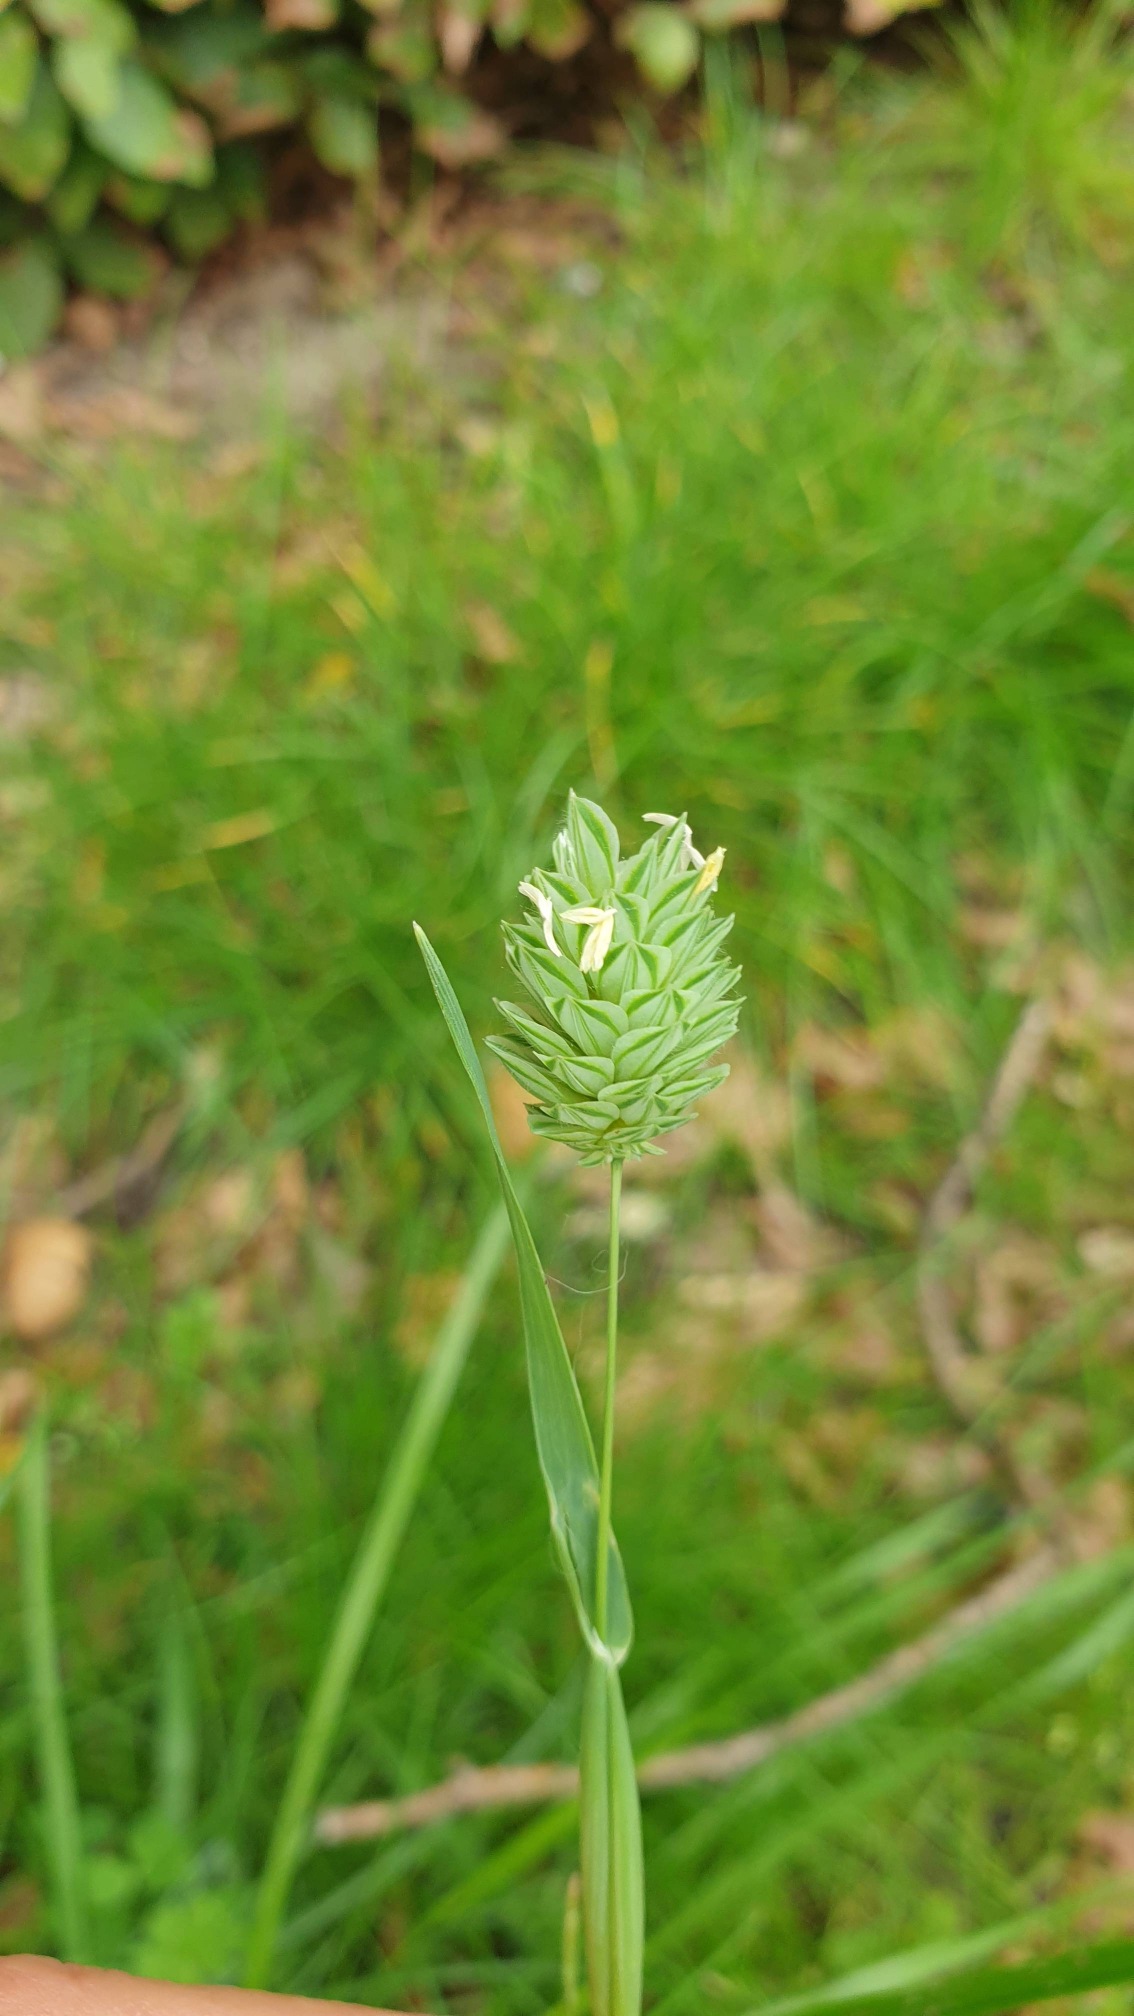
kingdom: Plantae
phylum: Tracheophyta
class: Liliopsida
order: Poales
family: Poaceae
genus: Phalaris
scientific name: Phalaris canariensis
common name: Kanariegræs
